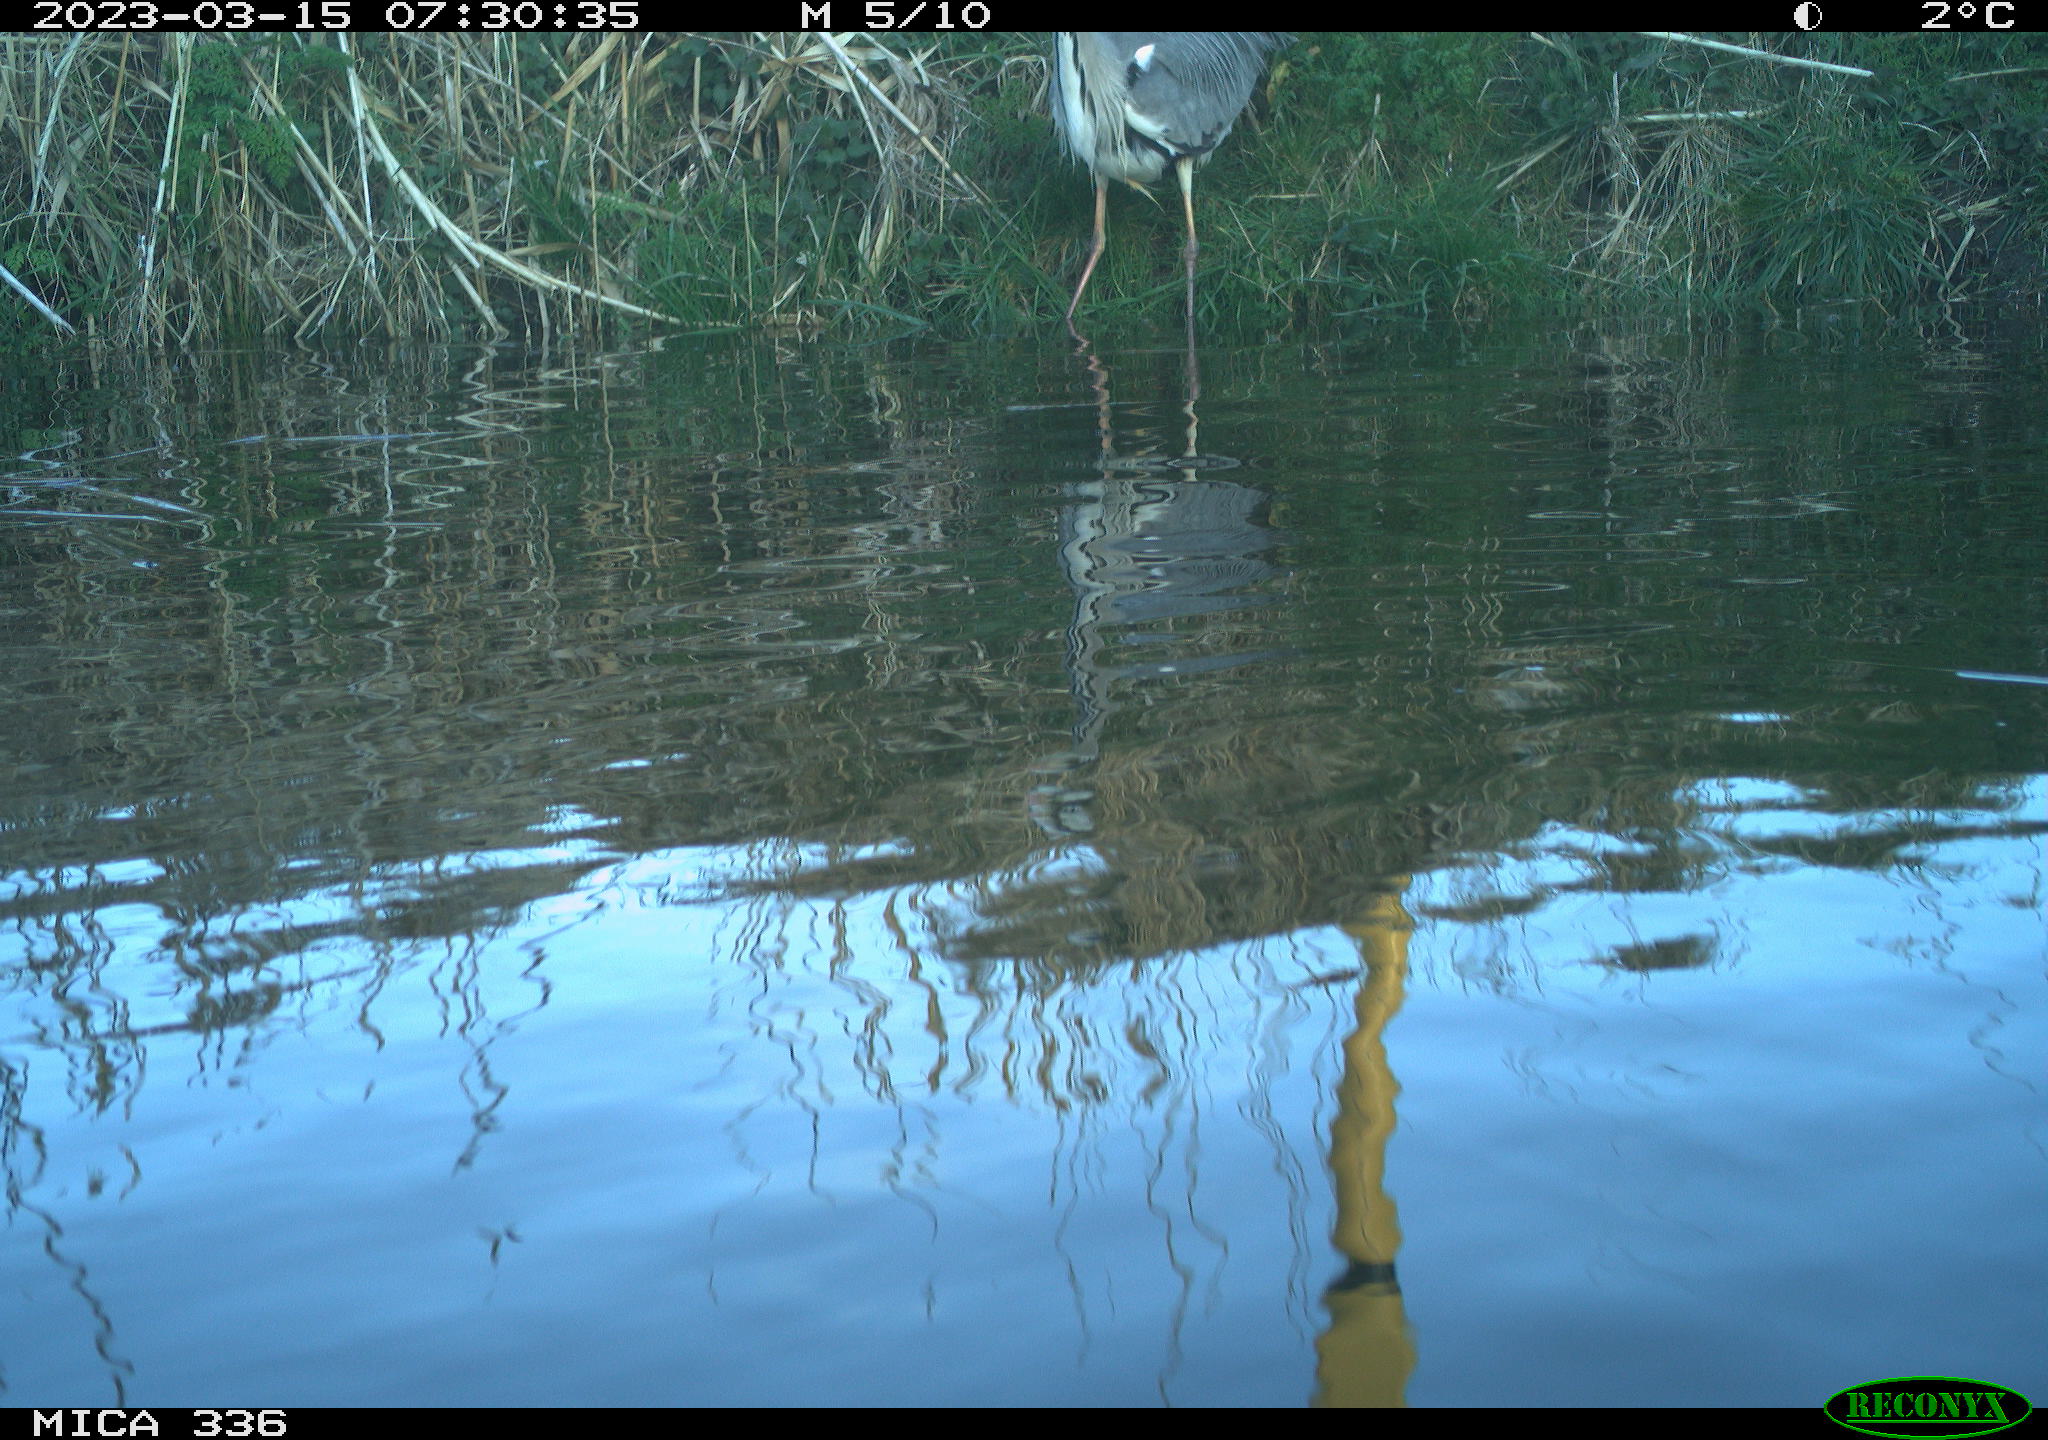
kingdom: Animalia
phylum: Chordata
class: Aves
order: Pelecaniformes
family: Ardeidae
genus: Ardea
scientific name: Ardea cinerea
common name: Grey heron
